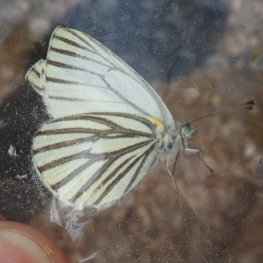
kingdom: Animalia
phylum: Arthropoda
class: Insecta
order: Lepidoptera
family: Pieridae
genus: Pieris
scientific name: Pieris oleracea
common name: Mustard White
